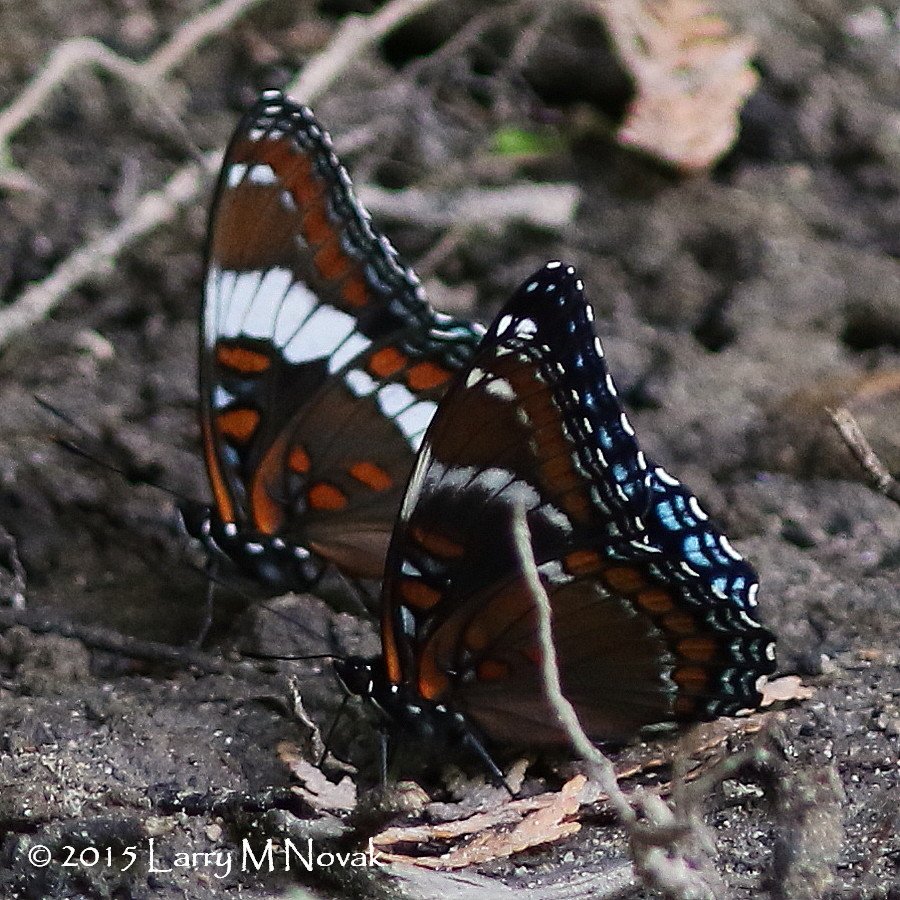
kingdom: Animalia
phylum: Arthropoda
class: Insecta
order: Lepidoptera
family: Nymphalidae
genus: Limenitis
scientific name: Limenitis astyanax
